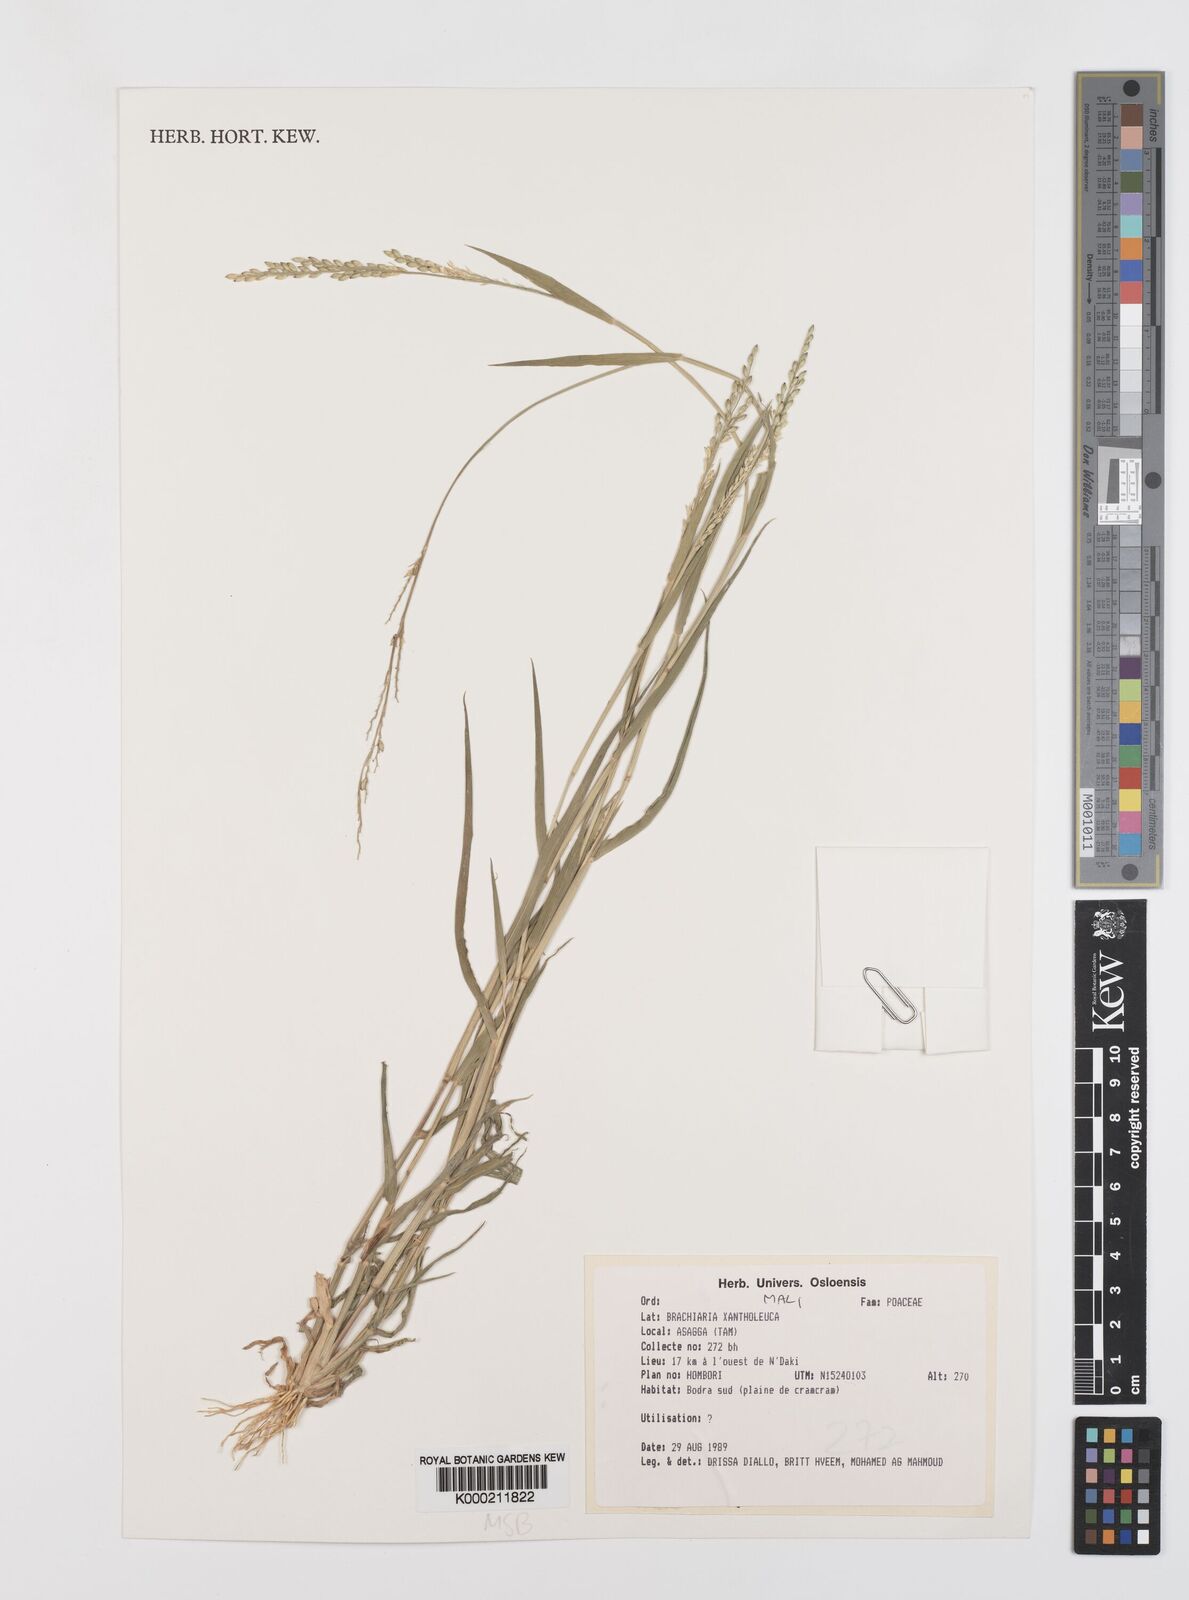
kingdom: Plantae
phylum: Tracheophyta
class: Liliopsida
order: Poales
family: Poaceae
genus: Urochloa
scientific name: Urochloa xantholeuca
